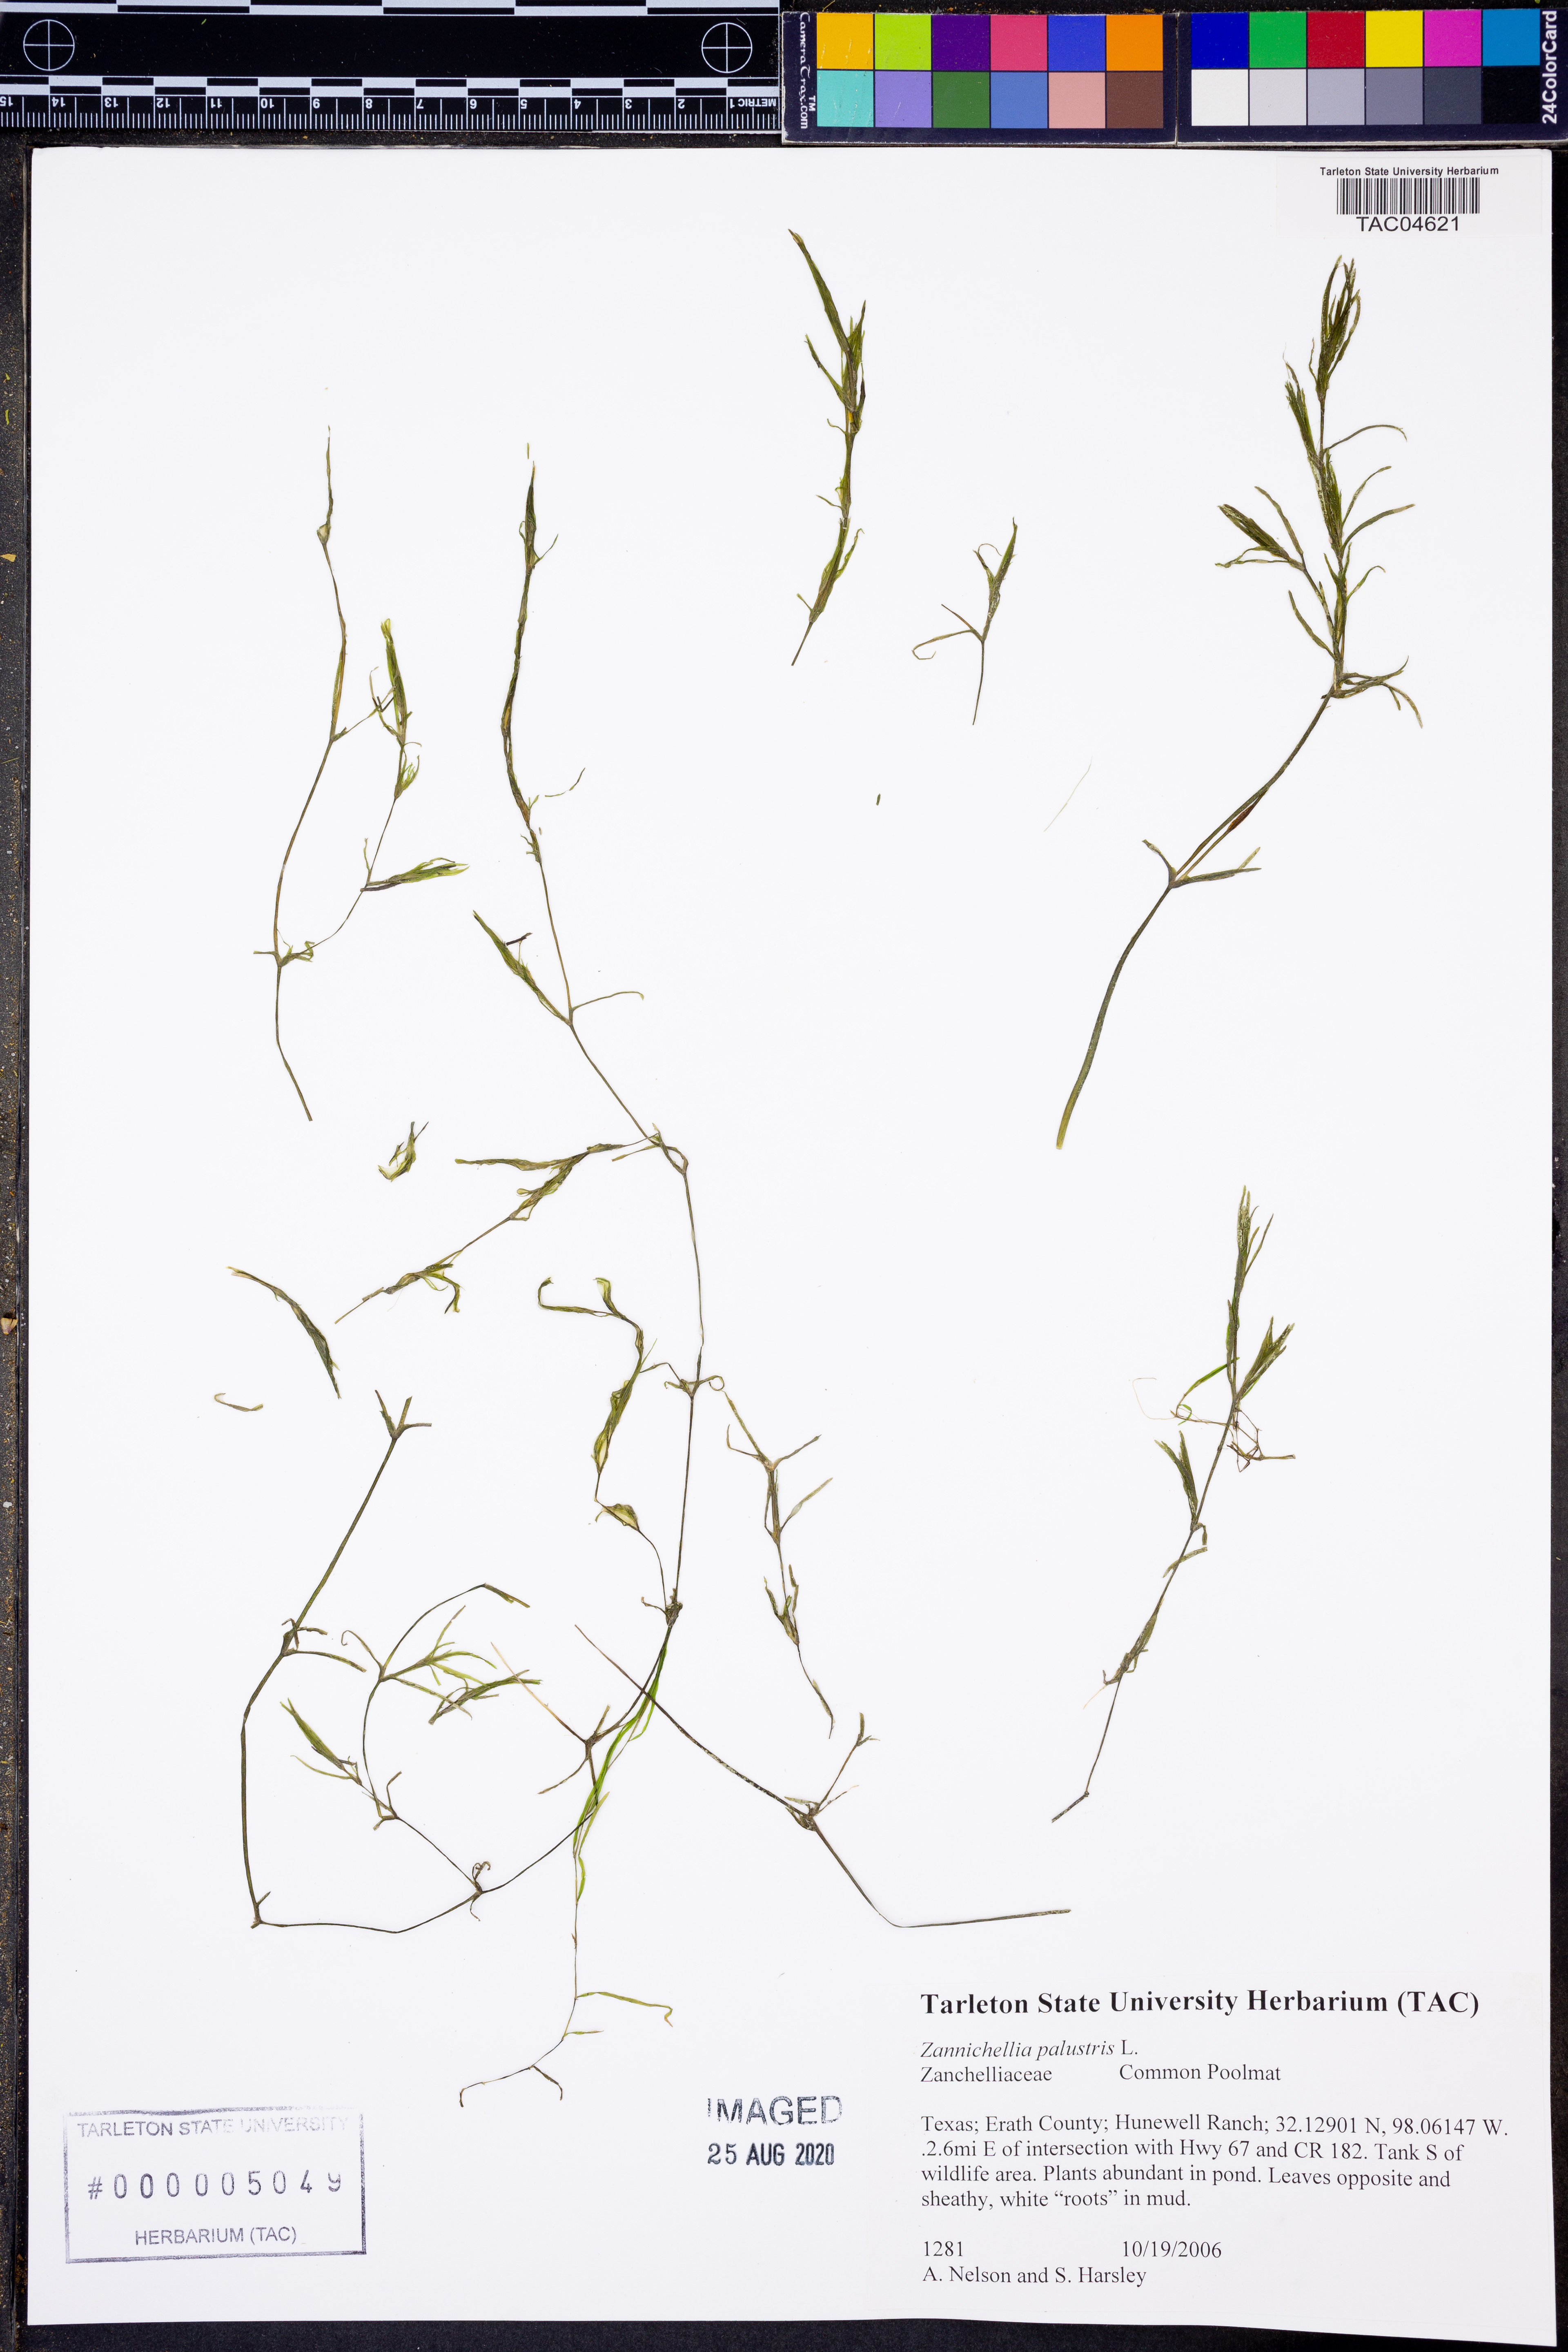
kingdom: Plantae
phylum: Tracheophyta
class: Liliopsida
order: Alismatales
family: Potamogetonaceae
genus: Zannichellia
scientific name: Zannichellia palustris
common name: Horned pondweed
